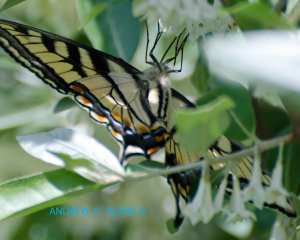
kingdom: Animalia
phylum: Arthropoda
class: Insecta
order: Lepidoptera
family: Papilionidae
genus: Pterourus
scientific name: Pterourus canadensis
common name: Canadian Tiger Swallowtail
